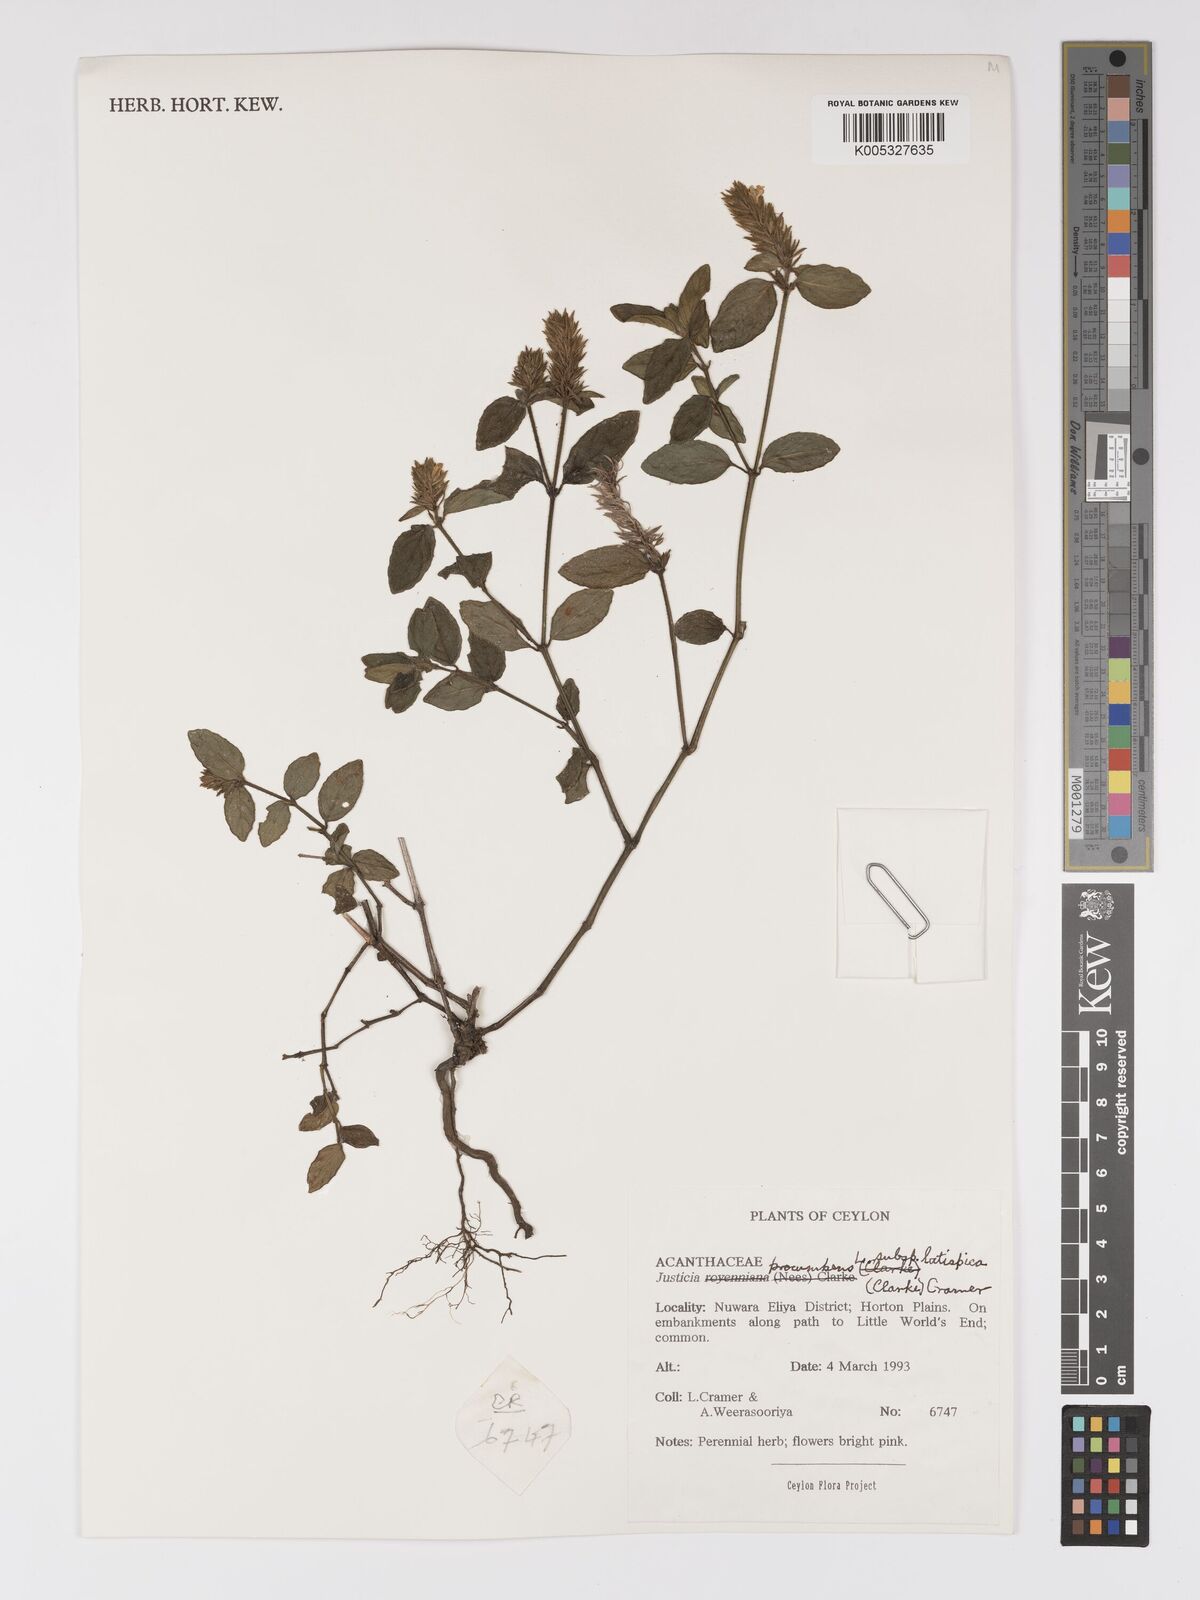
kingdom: Plantae
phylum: Tracheophyta
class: Magnoliopsida
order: Lamiales
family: Acanthaceae
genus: Rostellularia
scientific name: Rostellularia latispica
